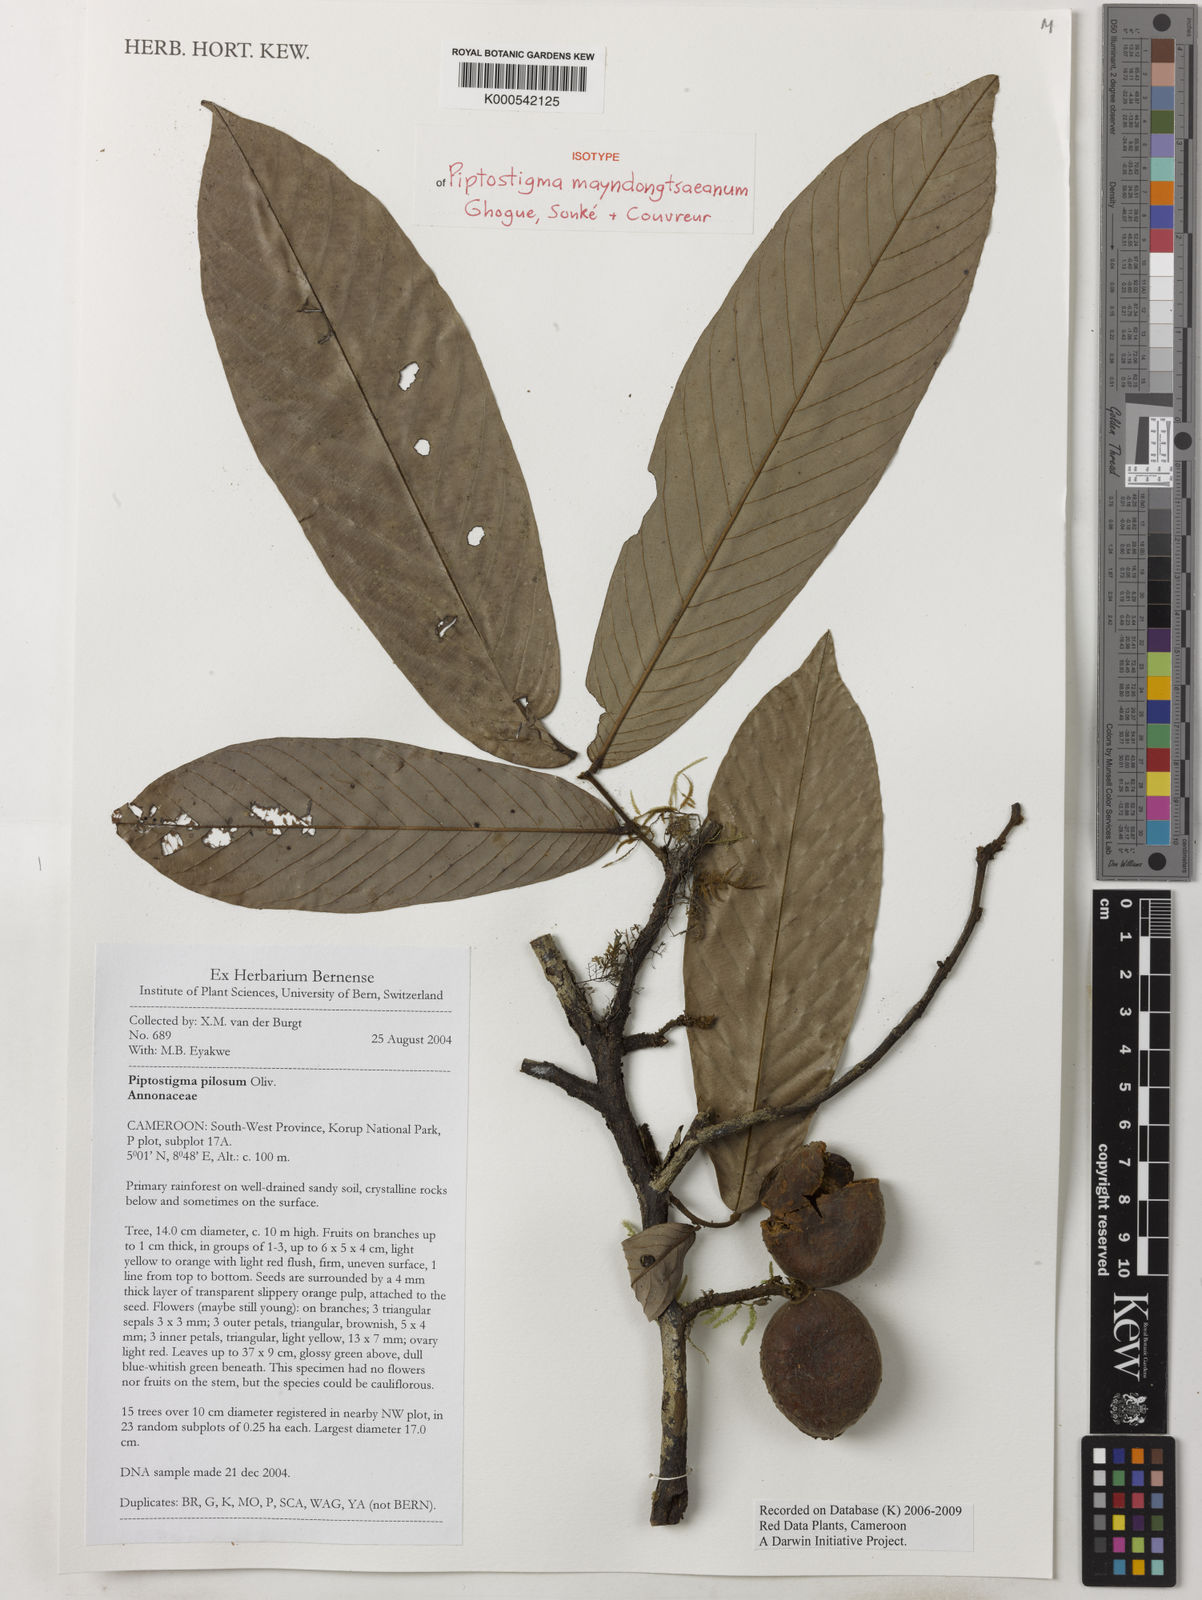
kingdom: Plantae
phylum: Tracheophyta
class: Magnoliopsida
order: Magnoliales
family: Annonaceae
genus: Piptostigma
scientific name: Piptostigma
